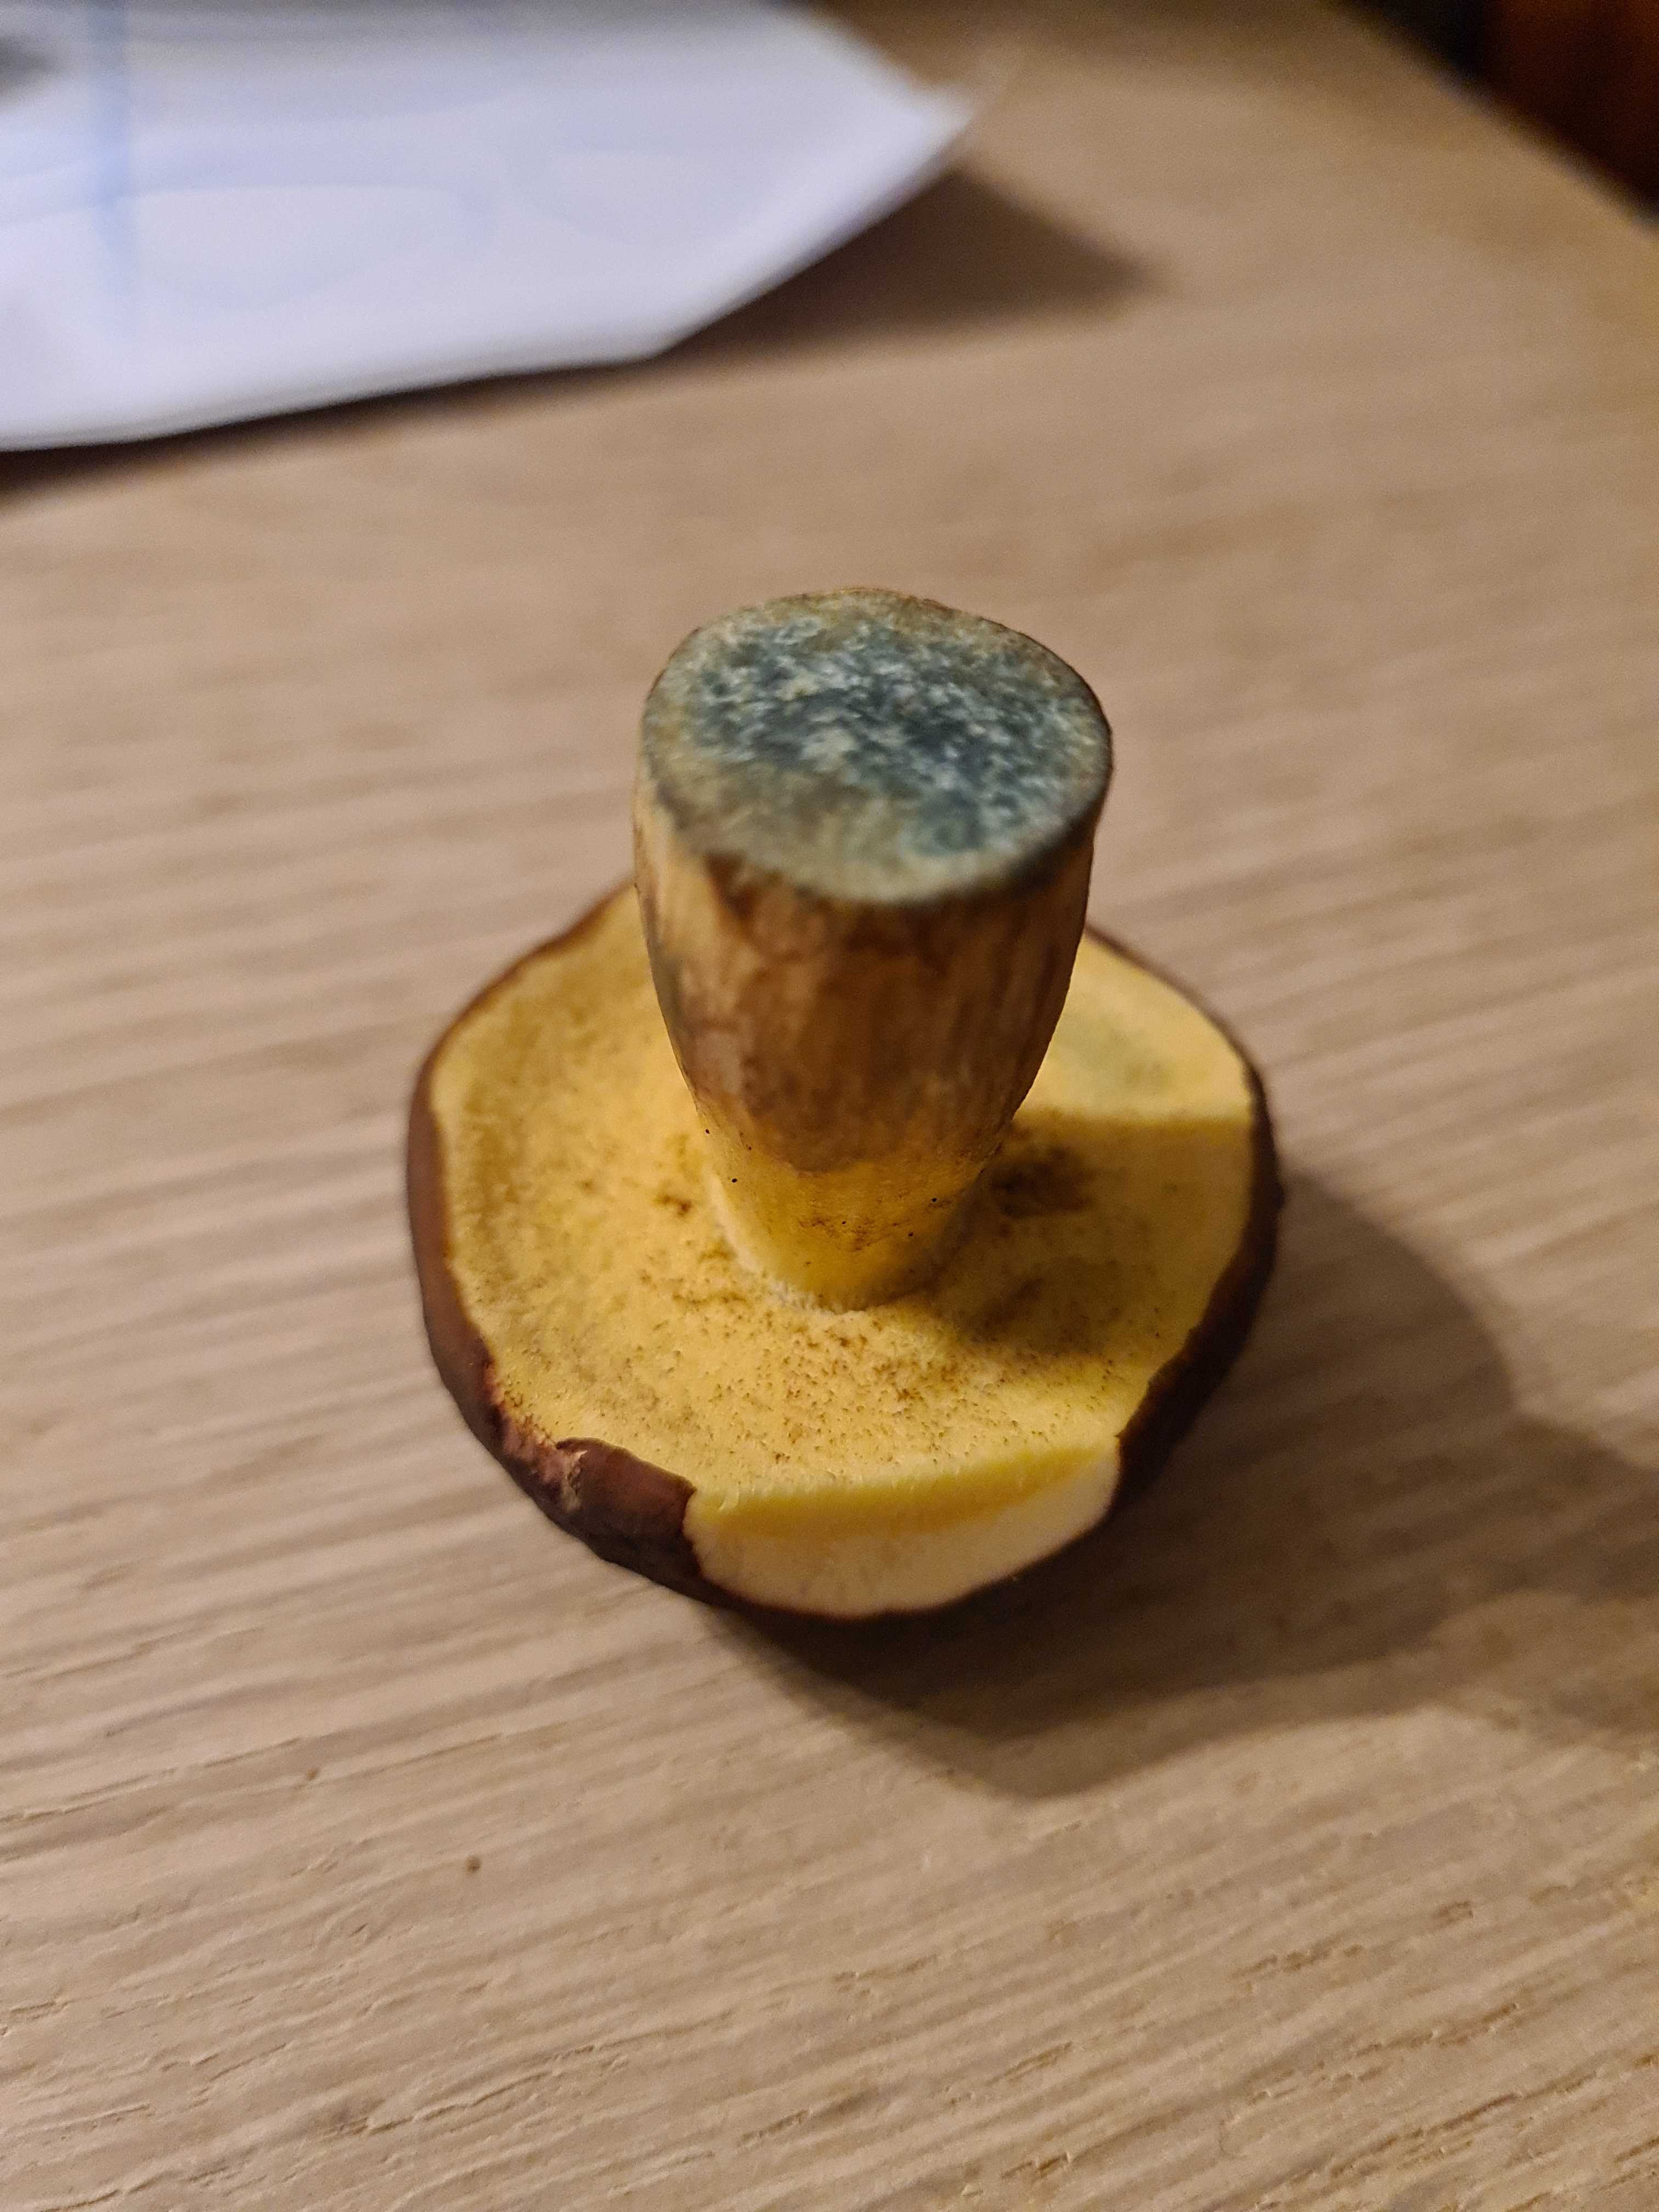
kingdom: Fungi
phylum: Basidiomycota
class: Agaricomycetes
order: Boletales
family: Boletaceae
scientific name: Boletaceae
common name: rørhatfamilien
